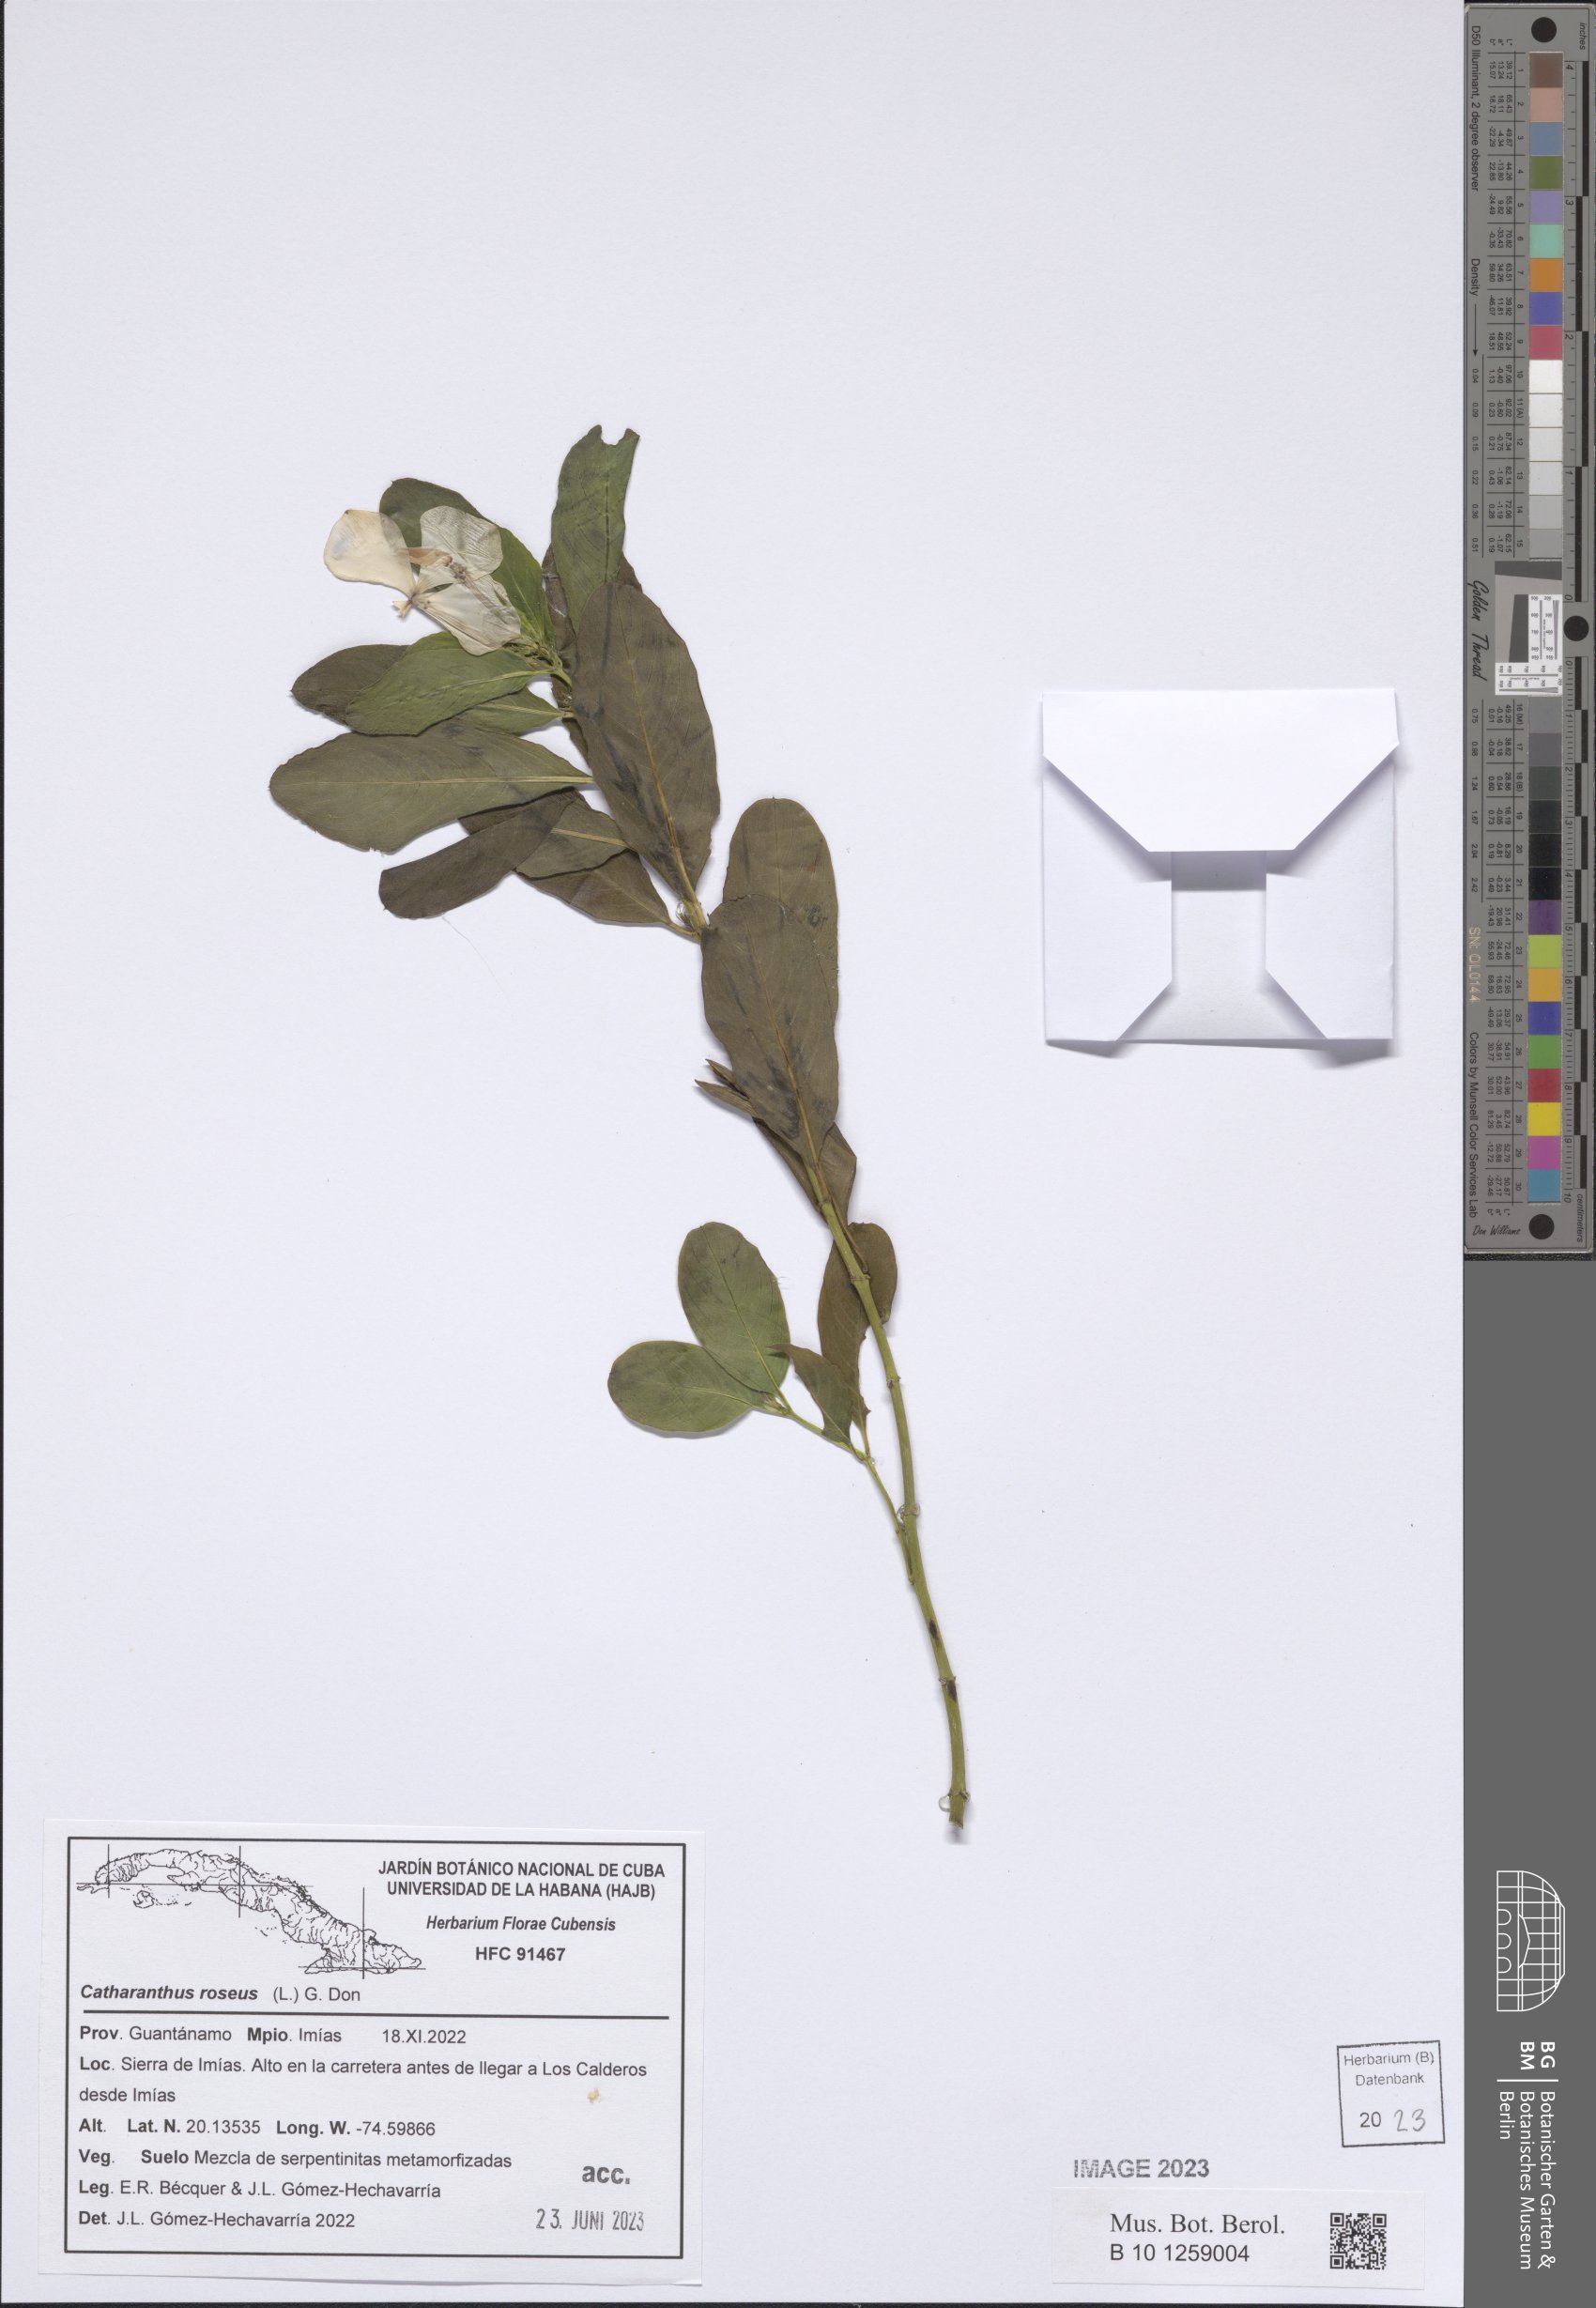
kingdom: Plantae
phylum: Tracheophyta
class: Magnoliopsida
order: Gentianales
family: Apocynaceae
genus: Catharanthus
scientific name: Catharanthus roseus
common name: Madagascar periwinkle
